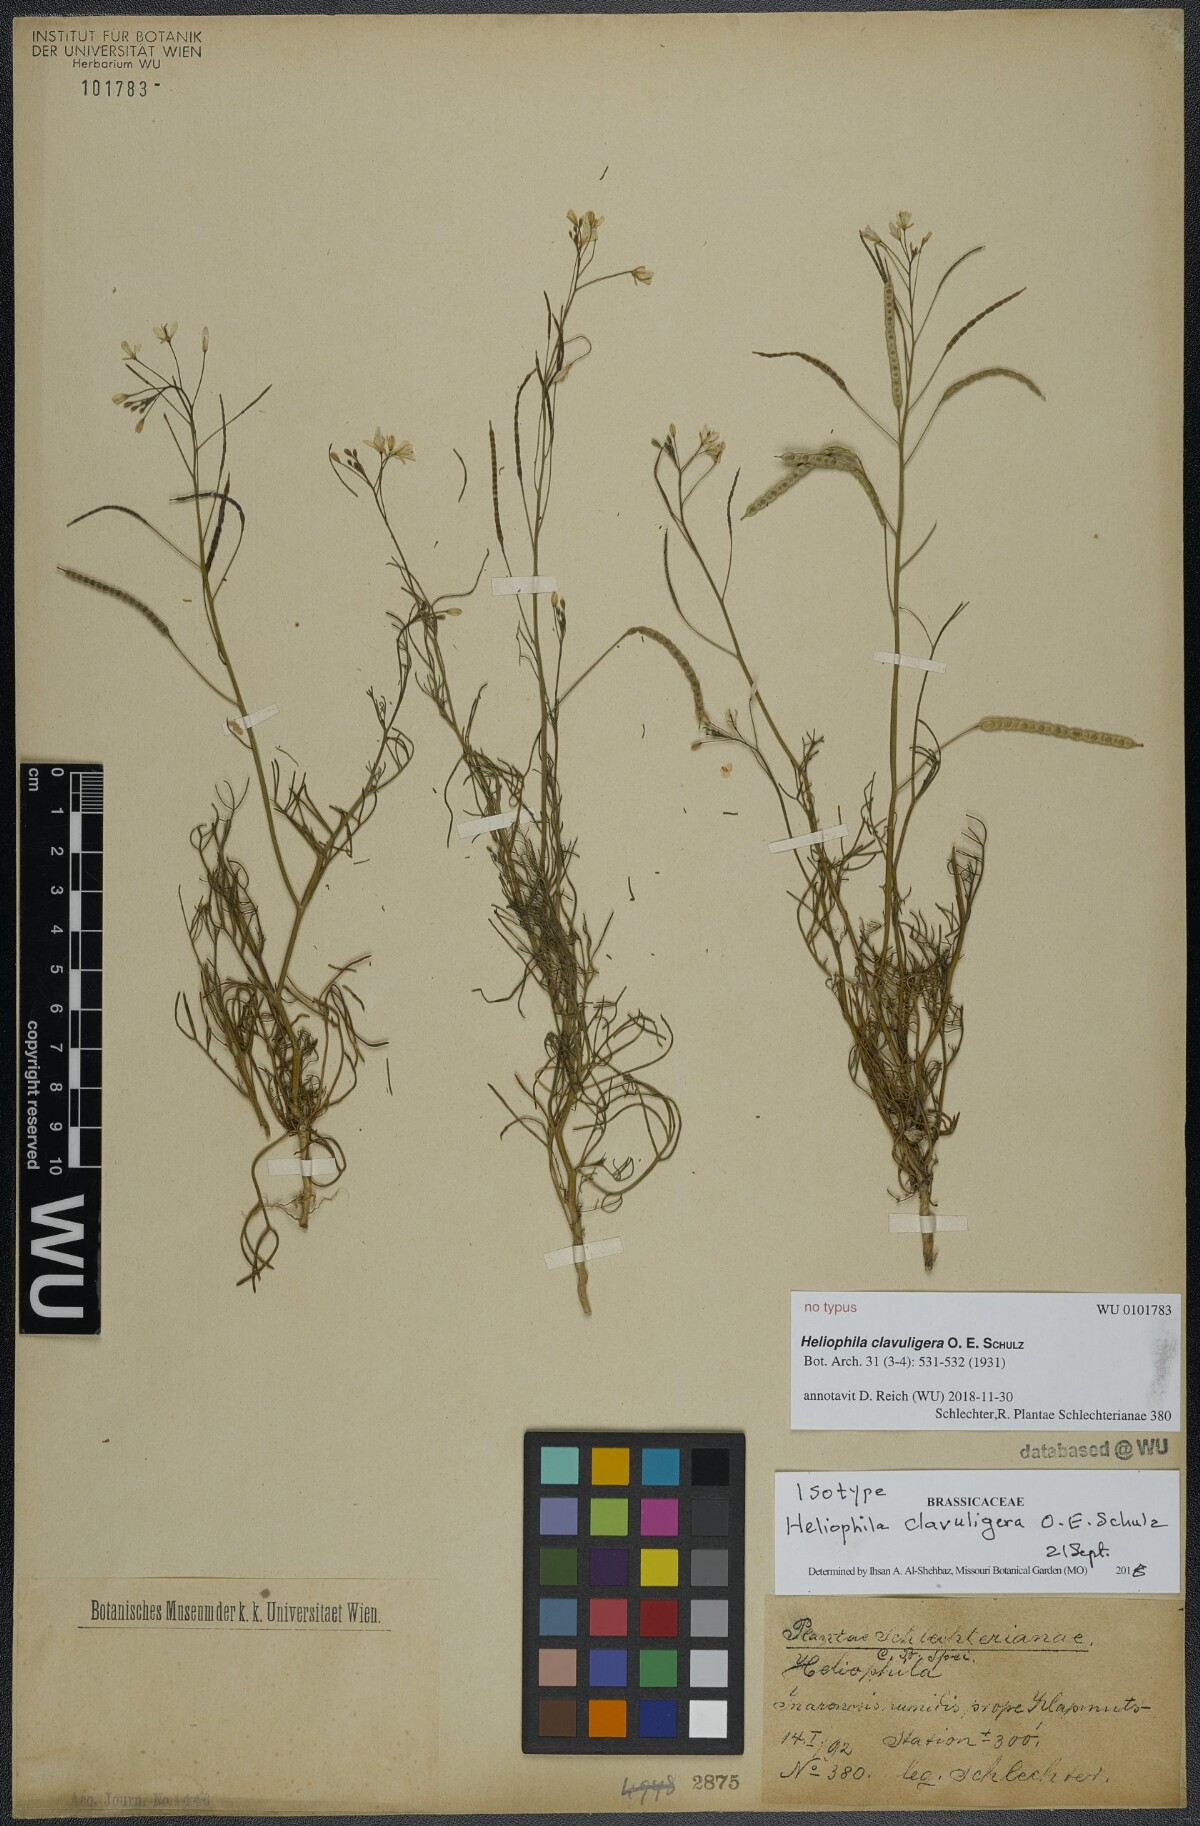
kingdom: Plantae
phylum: Tracheophyta
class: Magnoliopsida
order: Brassicales
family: Brassicaceae
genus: Heliophila
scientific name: Heliophila pinnata
